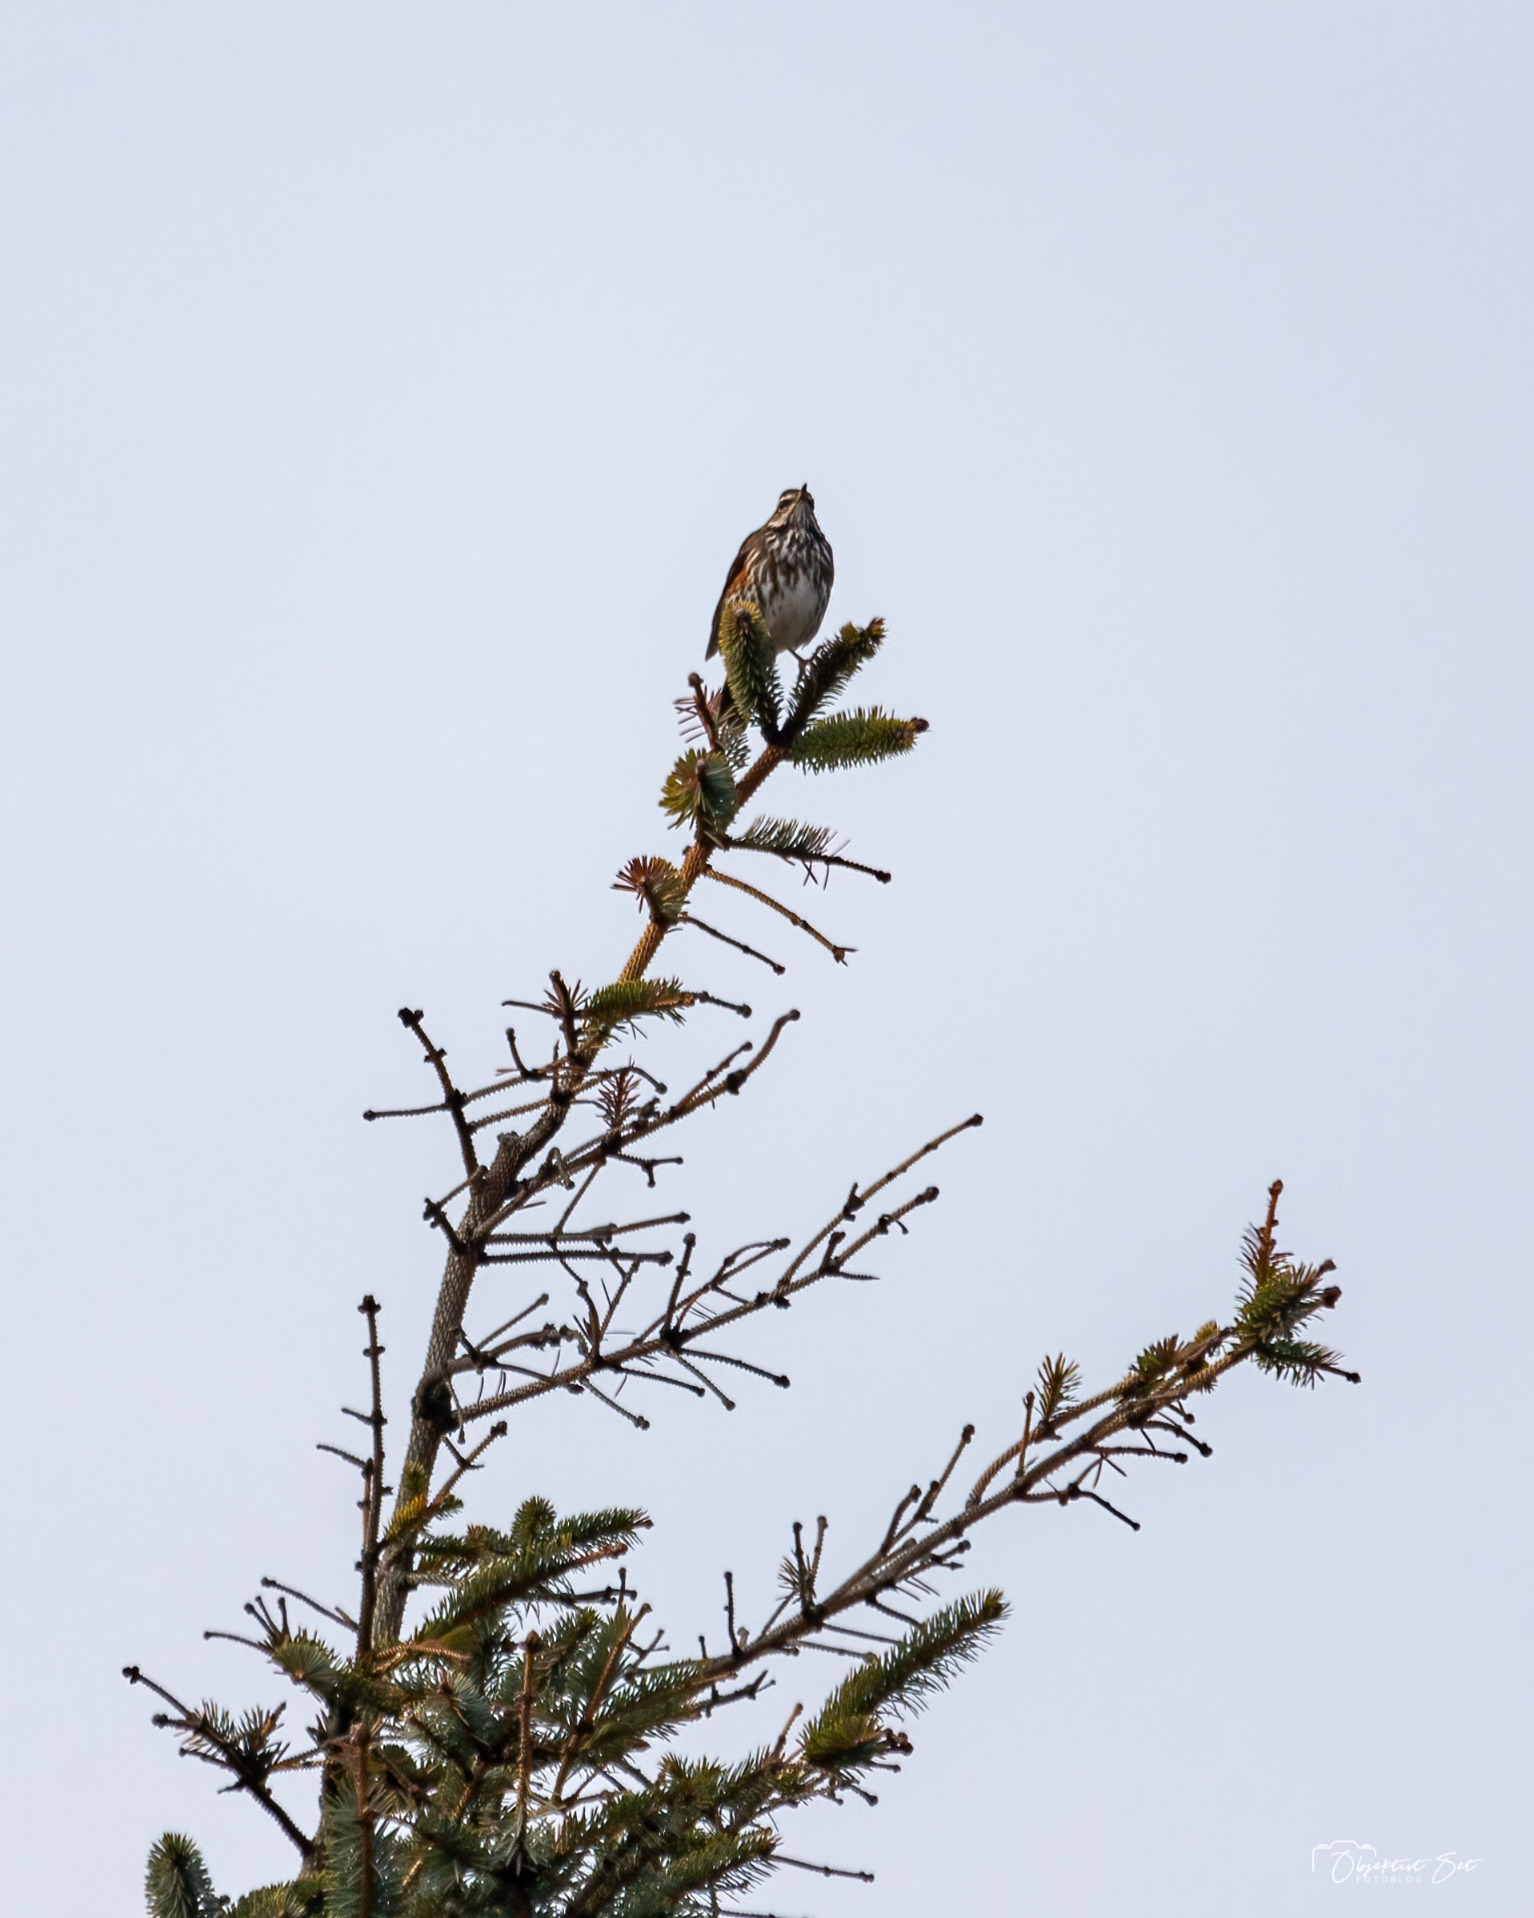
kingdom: Animalia
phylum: Chordata
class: Aves
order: Passeriformes
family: Turdidae
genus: Turdus
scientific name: Turdus iliacus
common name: Vindrossel
